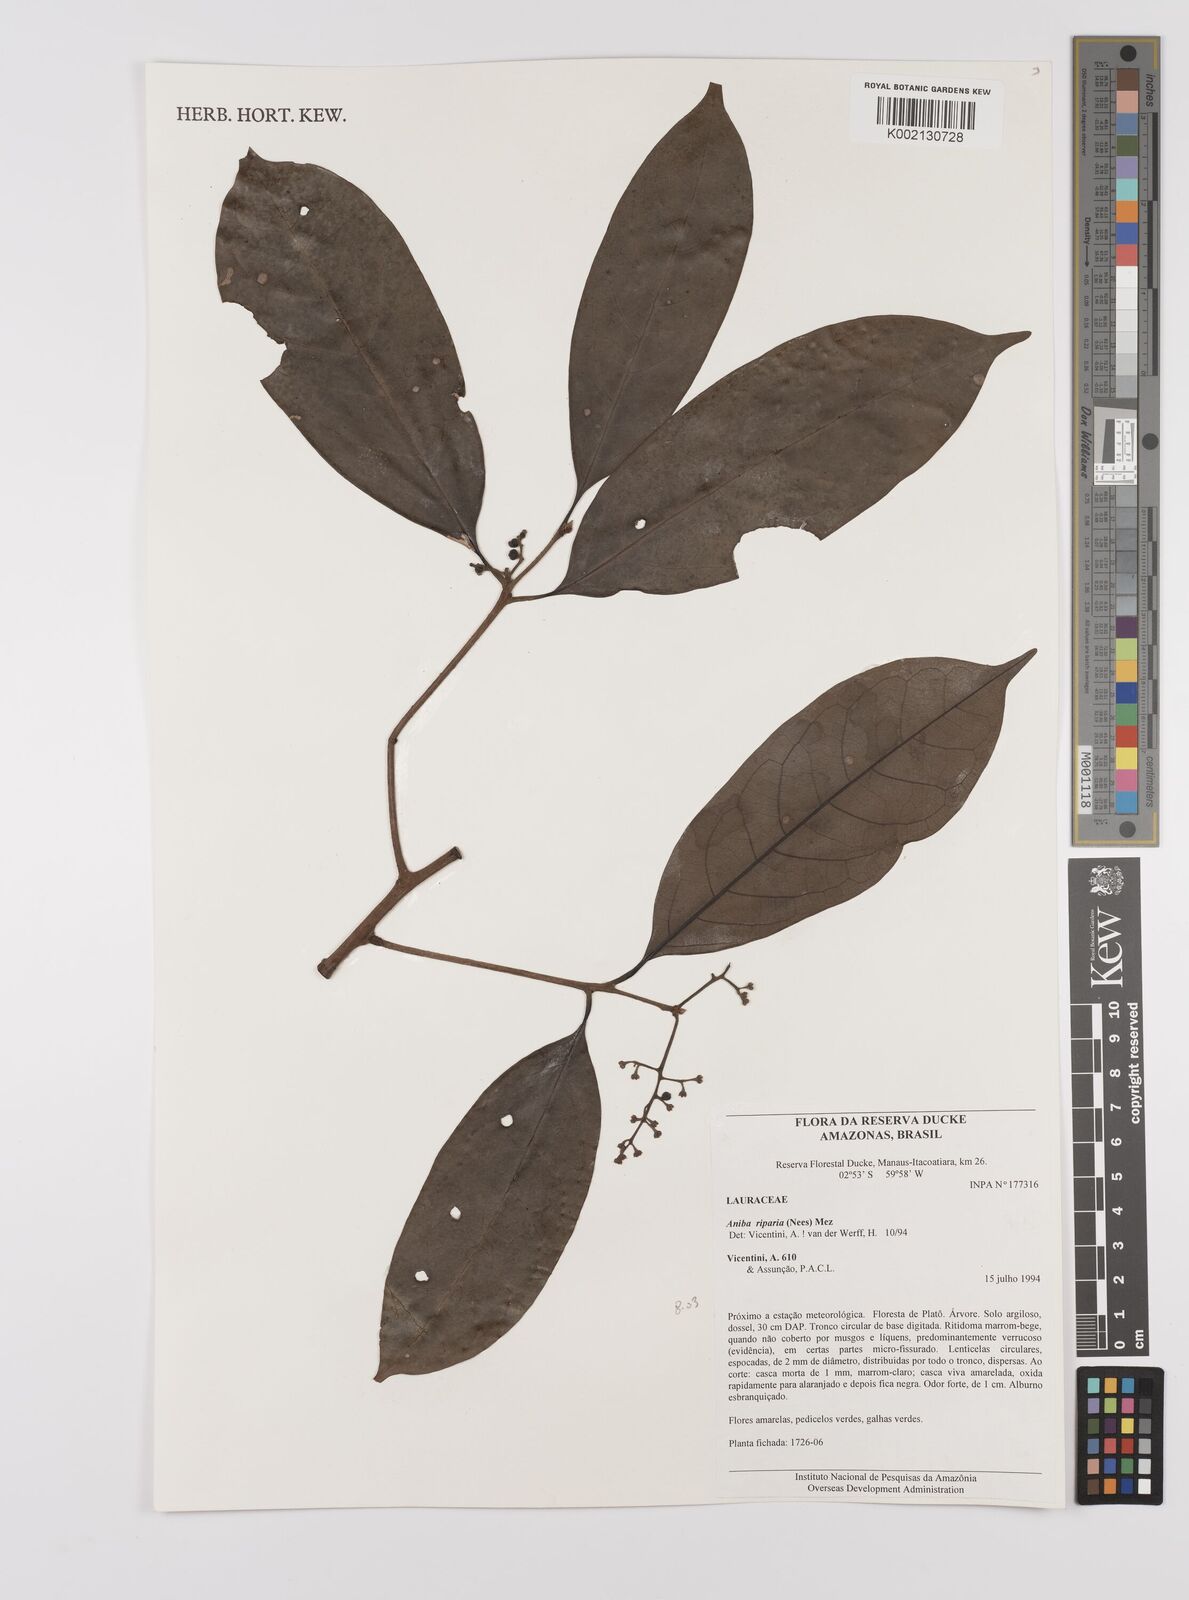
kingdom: Plantae
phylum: Tracheophyta
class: Magnoliopsida
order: Laurales
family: Lauraceae
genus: Aniba
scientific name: Aniba riparia
